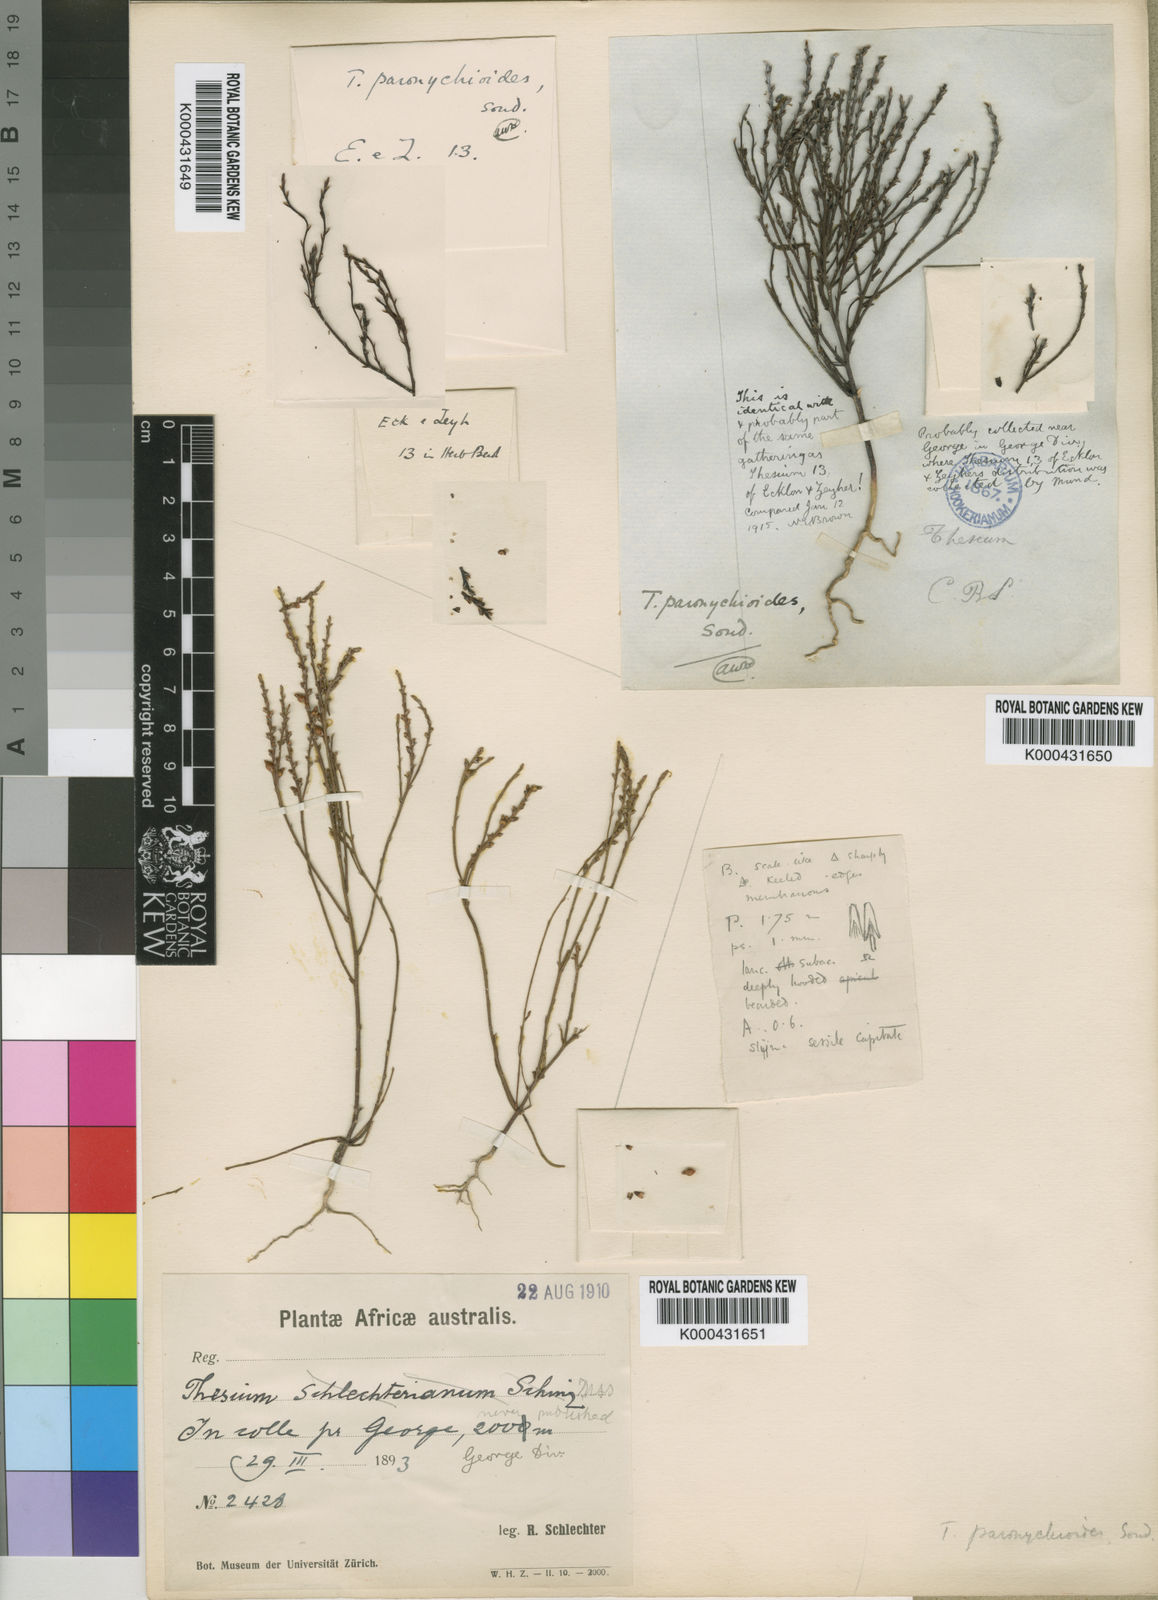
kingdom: Plantae
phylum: Tracheophyta
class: Magnoliopsida
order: Santalales
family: Thesiaceae
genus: Thesium
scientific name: Thesium paronychioides
